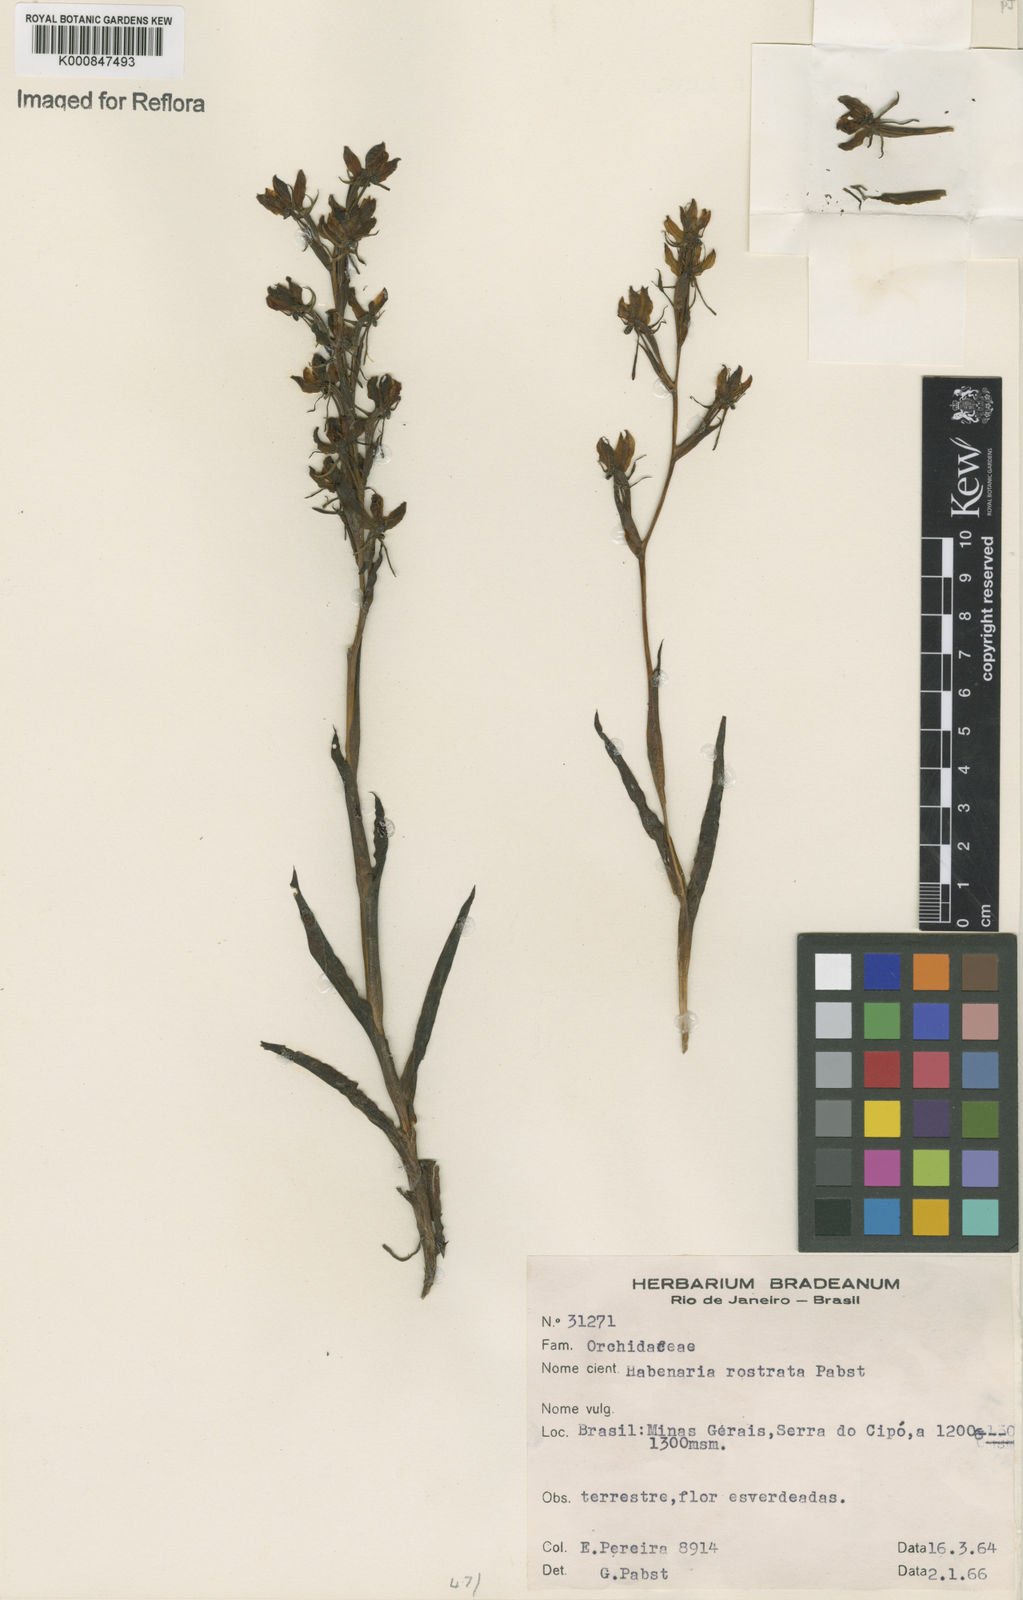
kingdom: Plantae
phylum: Tracheophyta
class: Liliopsida
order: Asparagales
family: Orchidaceae
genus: Habenaria
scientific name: Habenaria magniscutata
